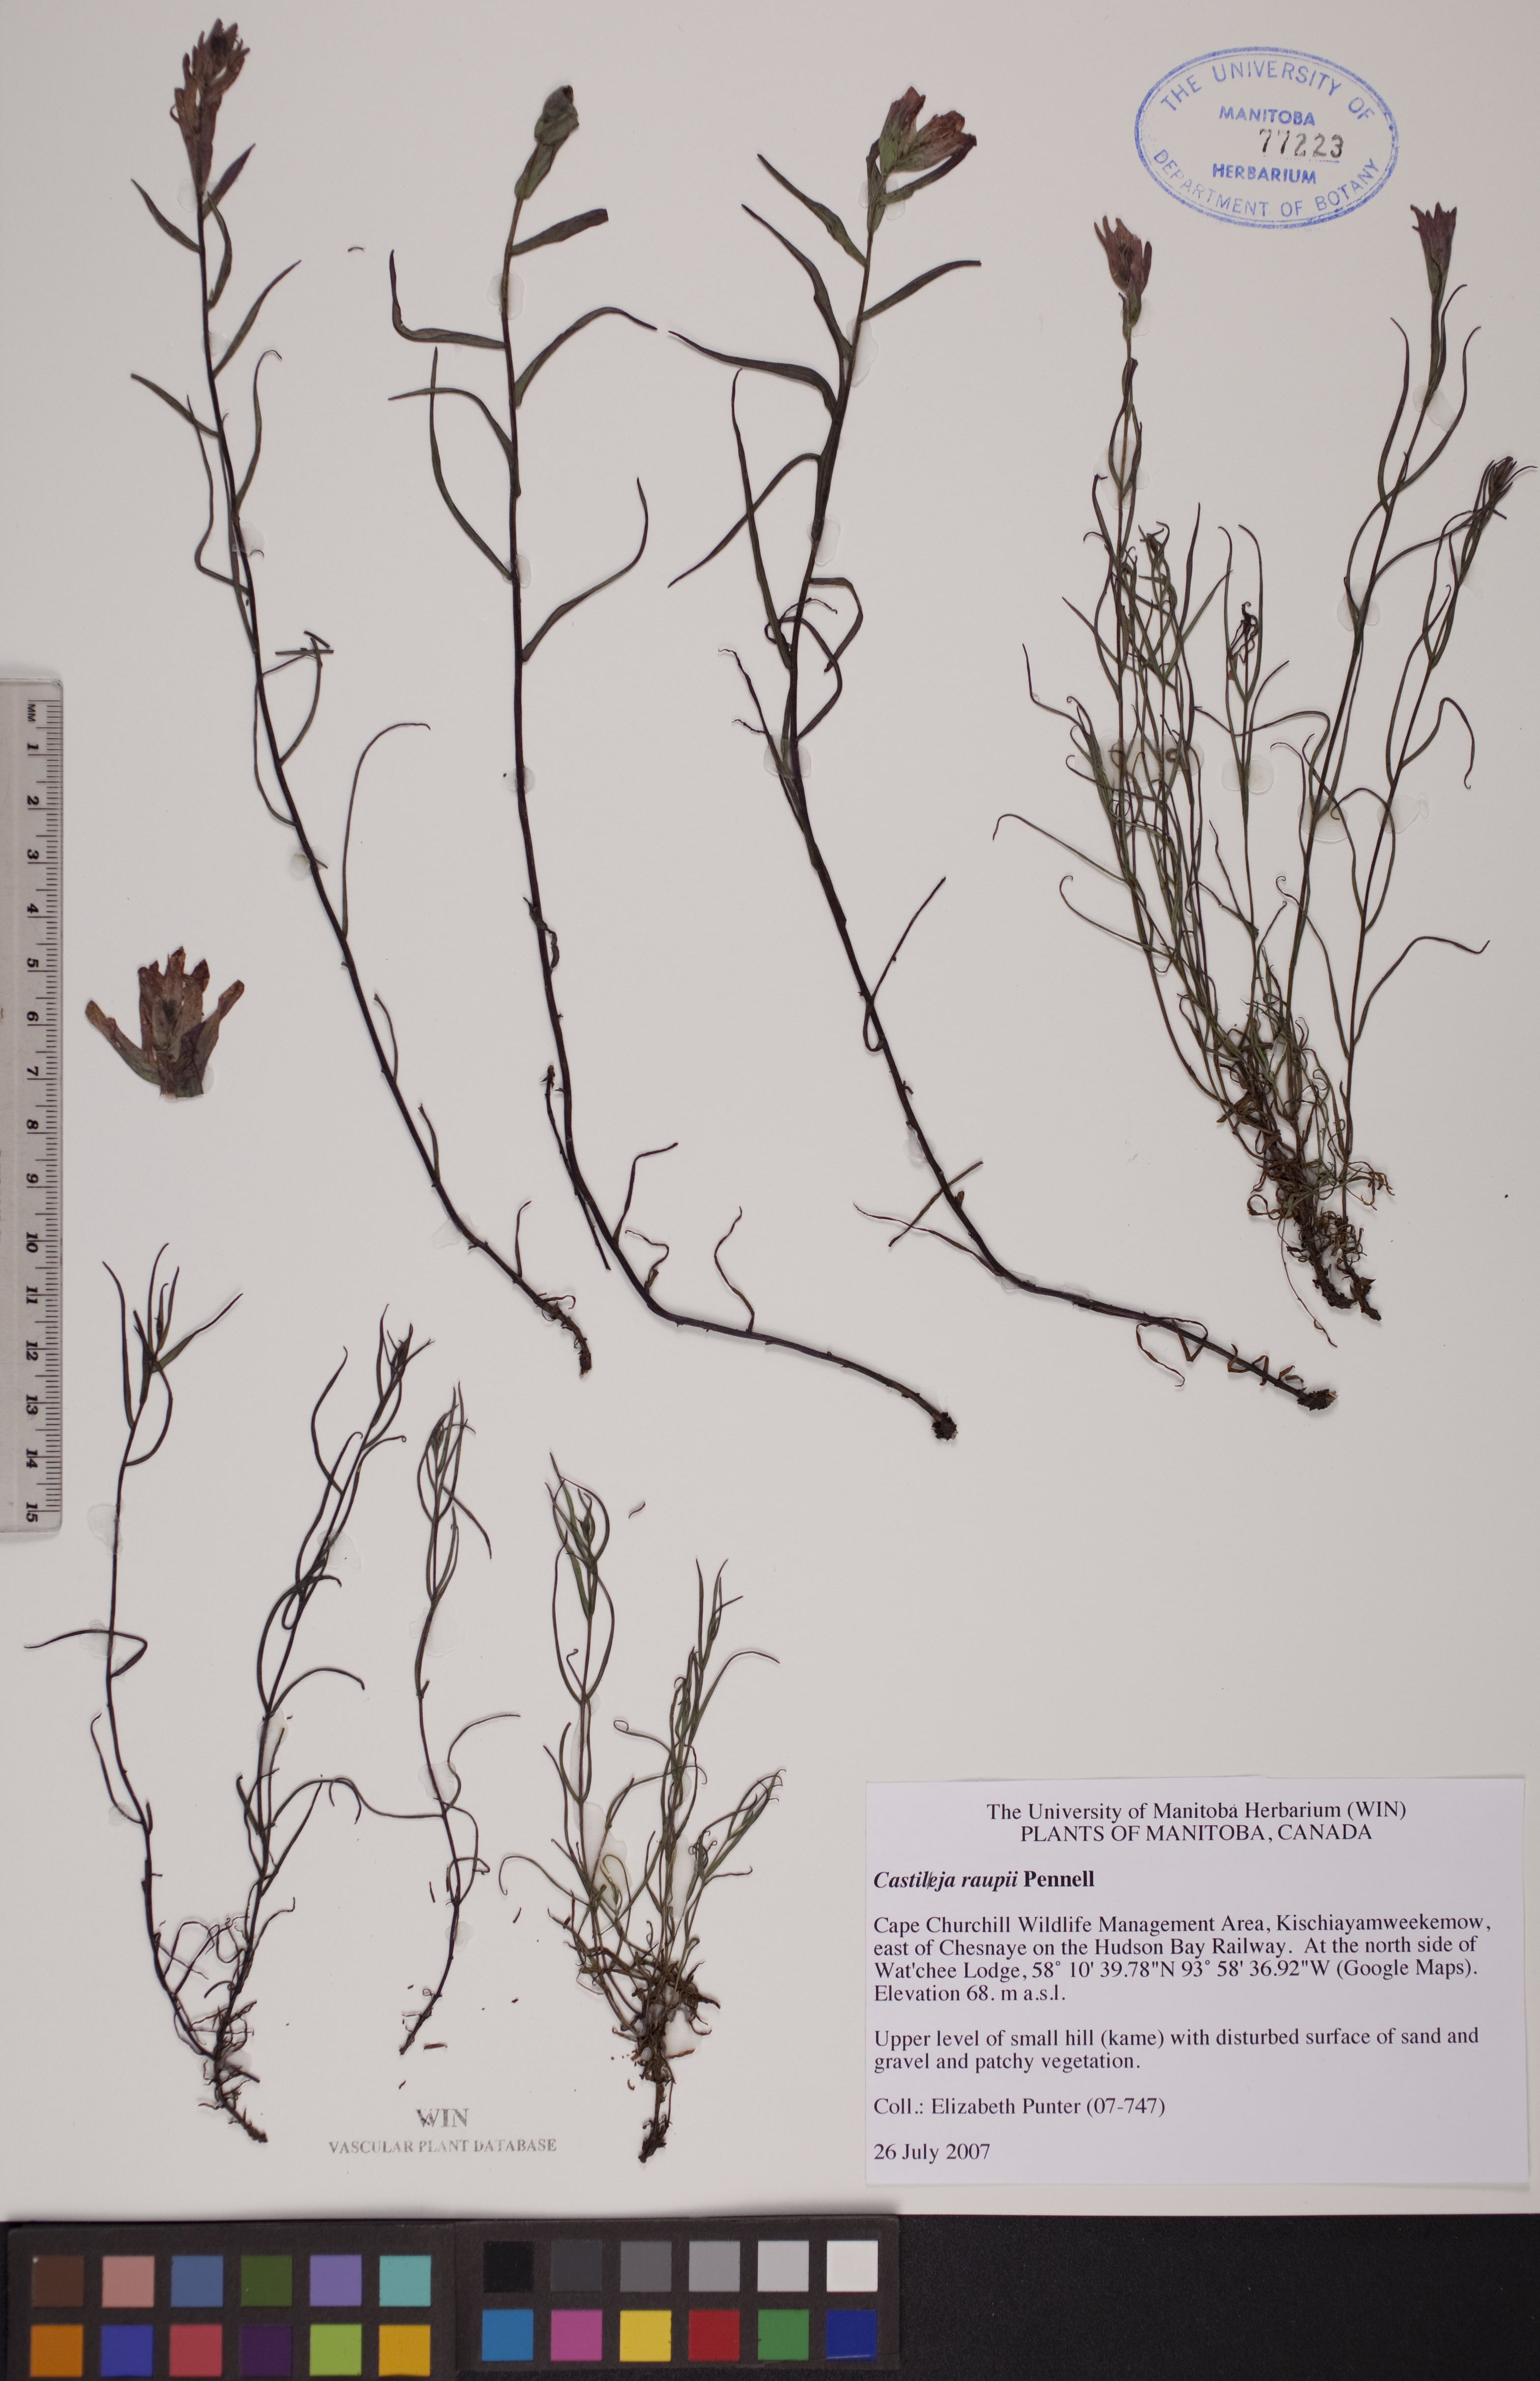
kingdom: Plantae
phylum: Tracheophyta
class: Magnoliopsida
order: Lamiales
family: Orobanchaceae
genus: Castilleja
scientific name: Castilleja raupii
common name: Raup's paintbrush
